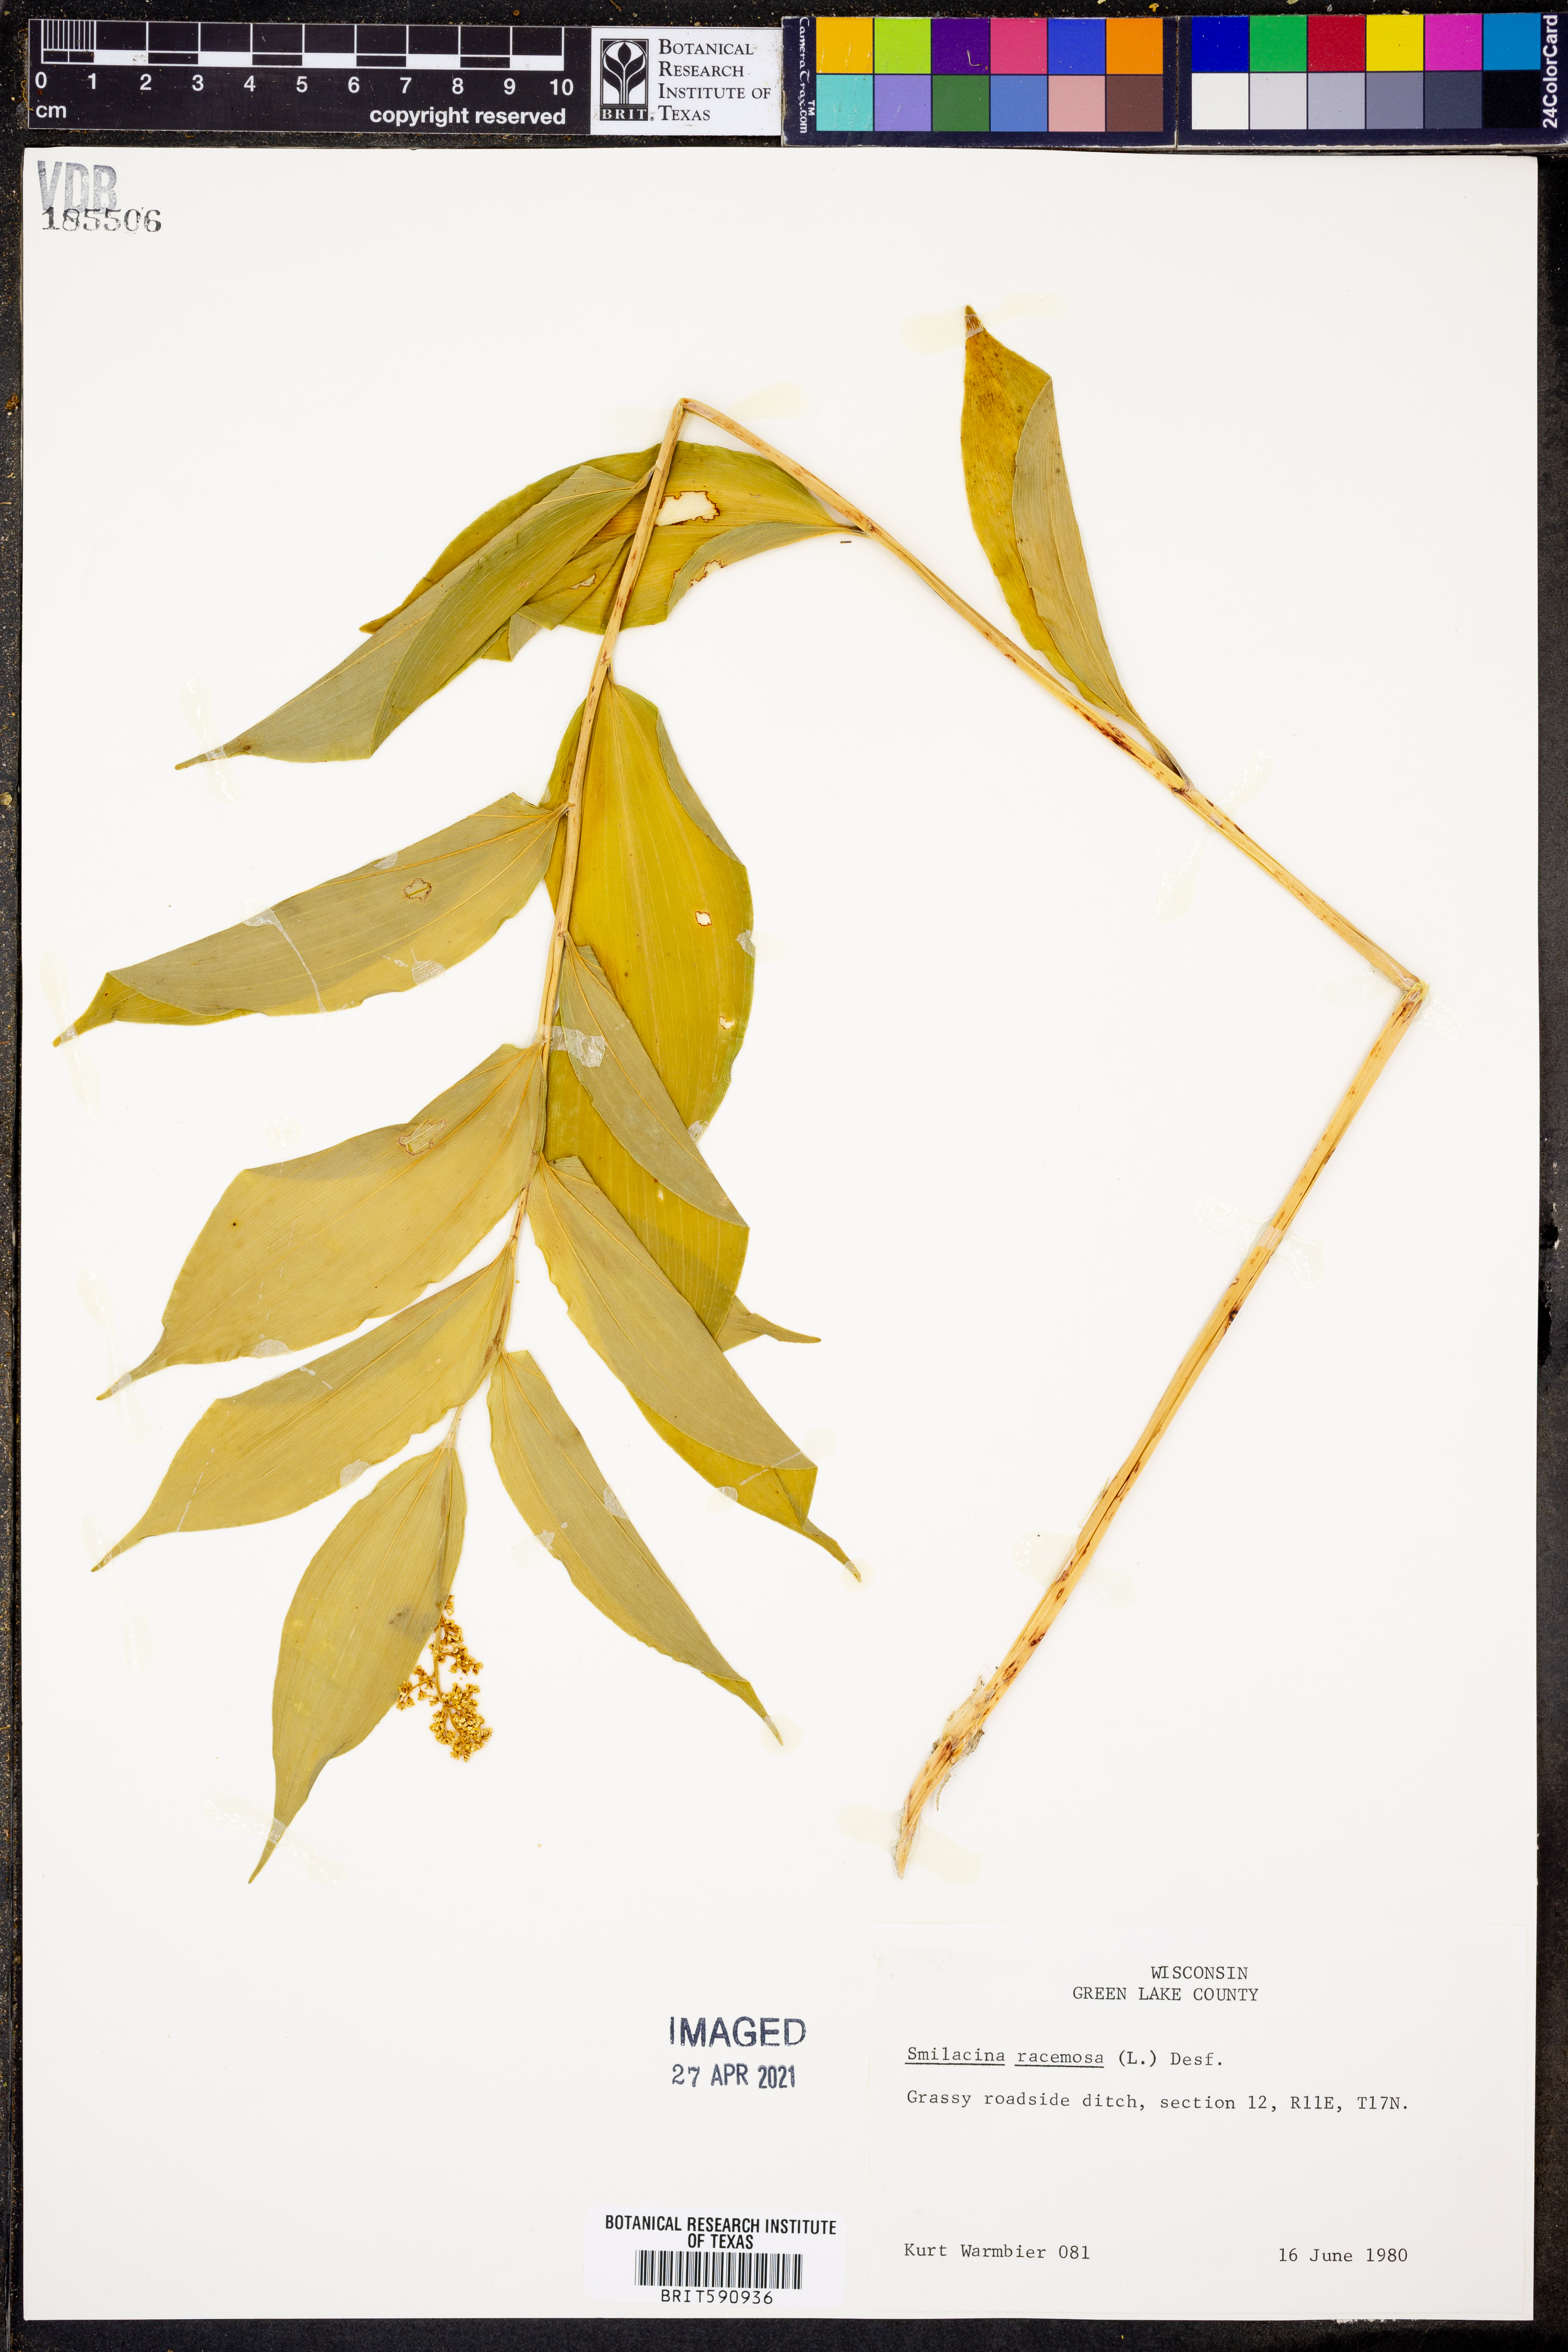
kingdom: Plantae
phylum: Tracheophyta
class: Liliopsida
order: Asparagales
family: Asparagaceae
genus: Maianthemum
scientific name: Maianthemum racemosum
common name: False spikenard
